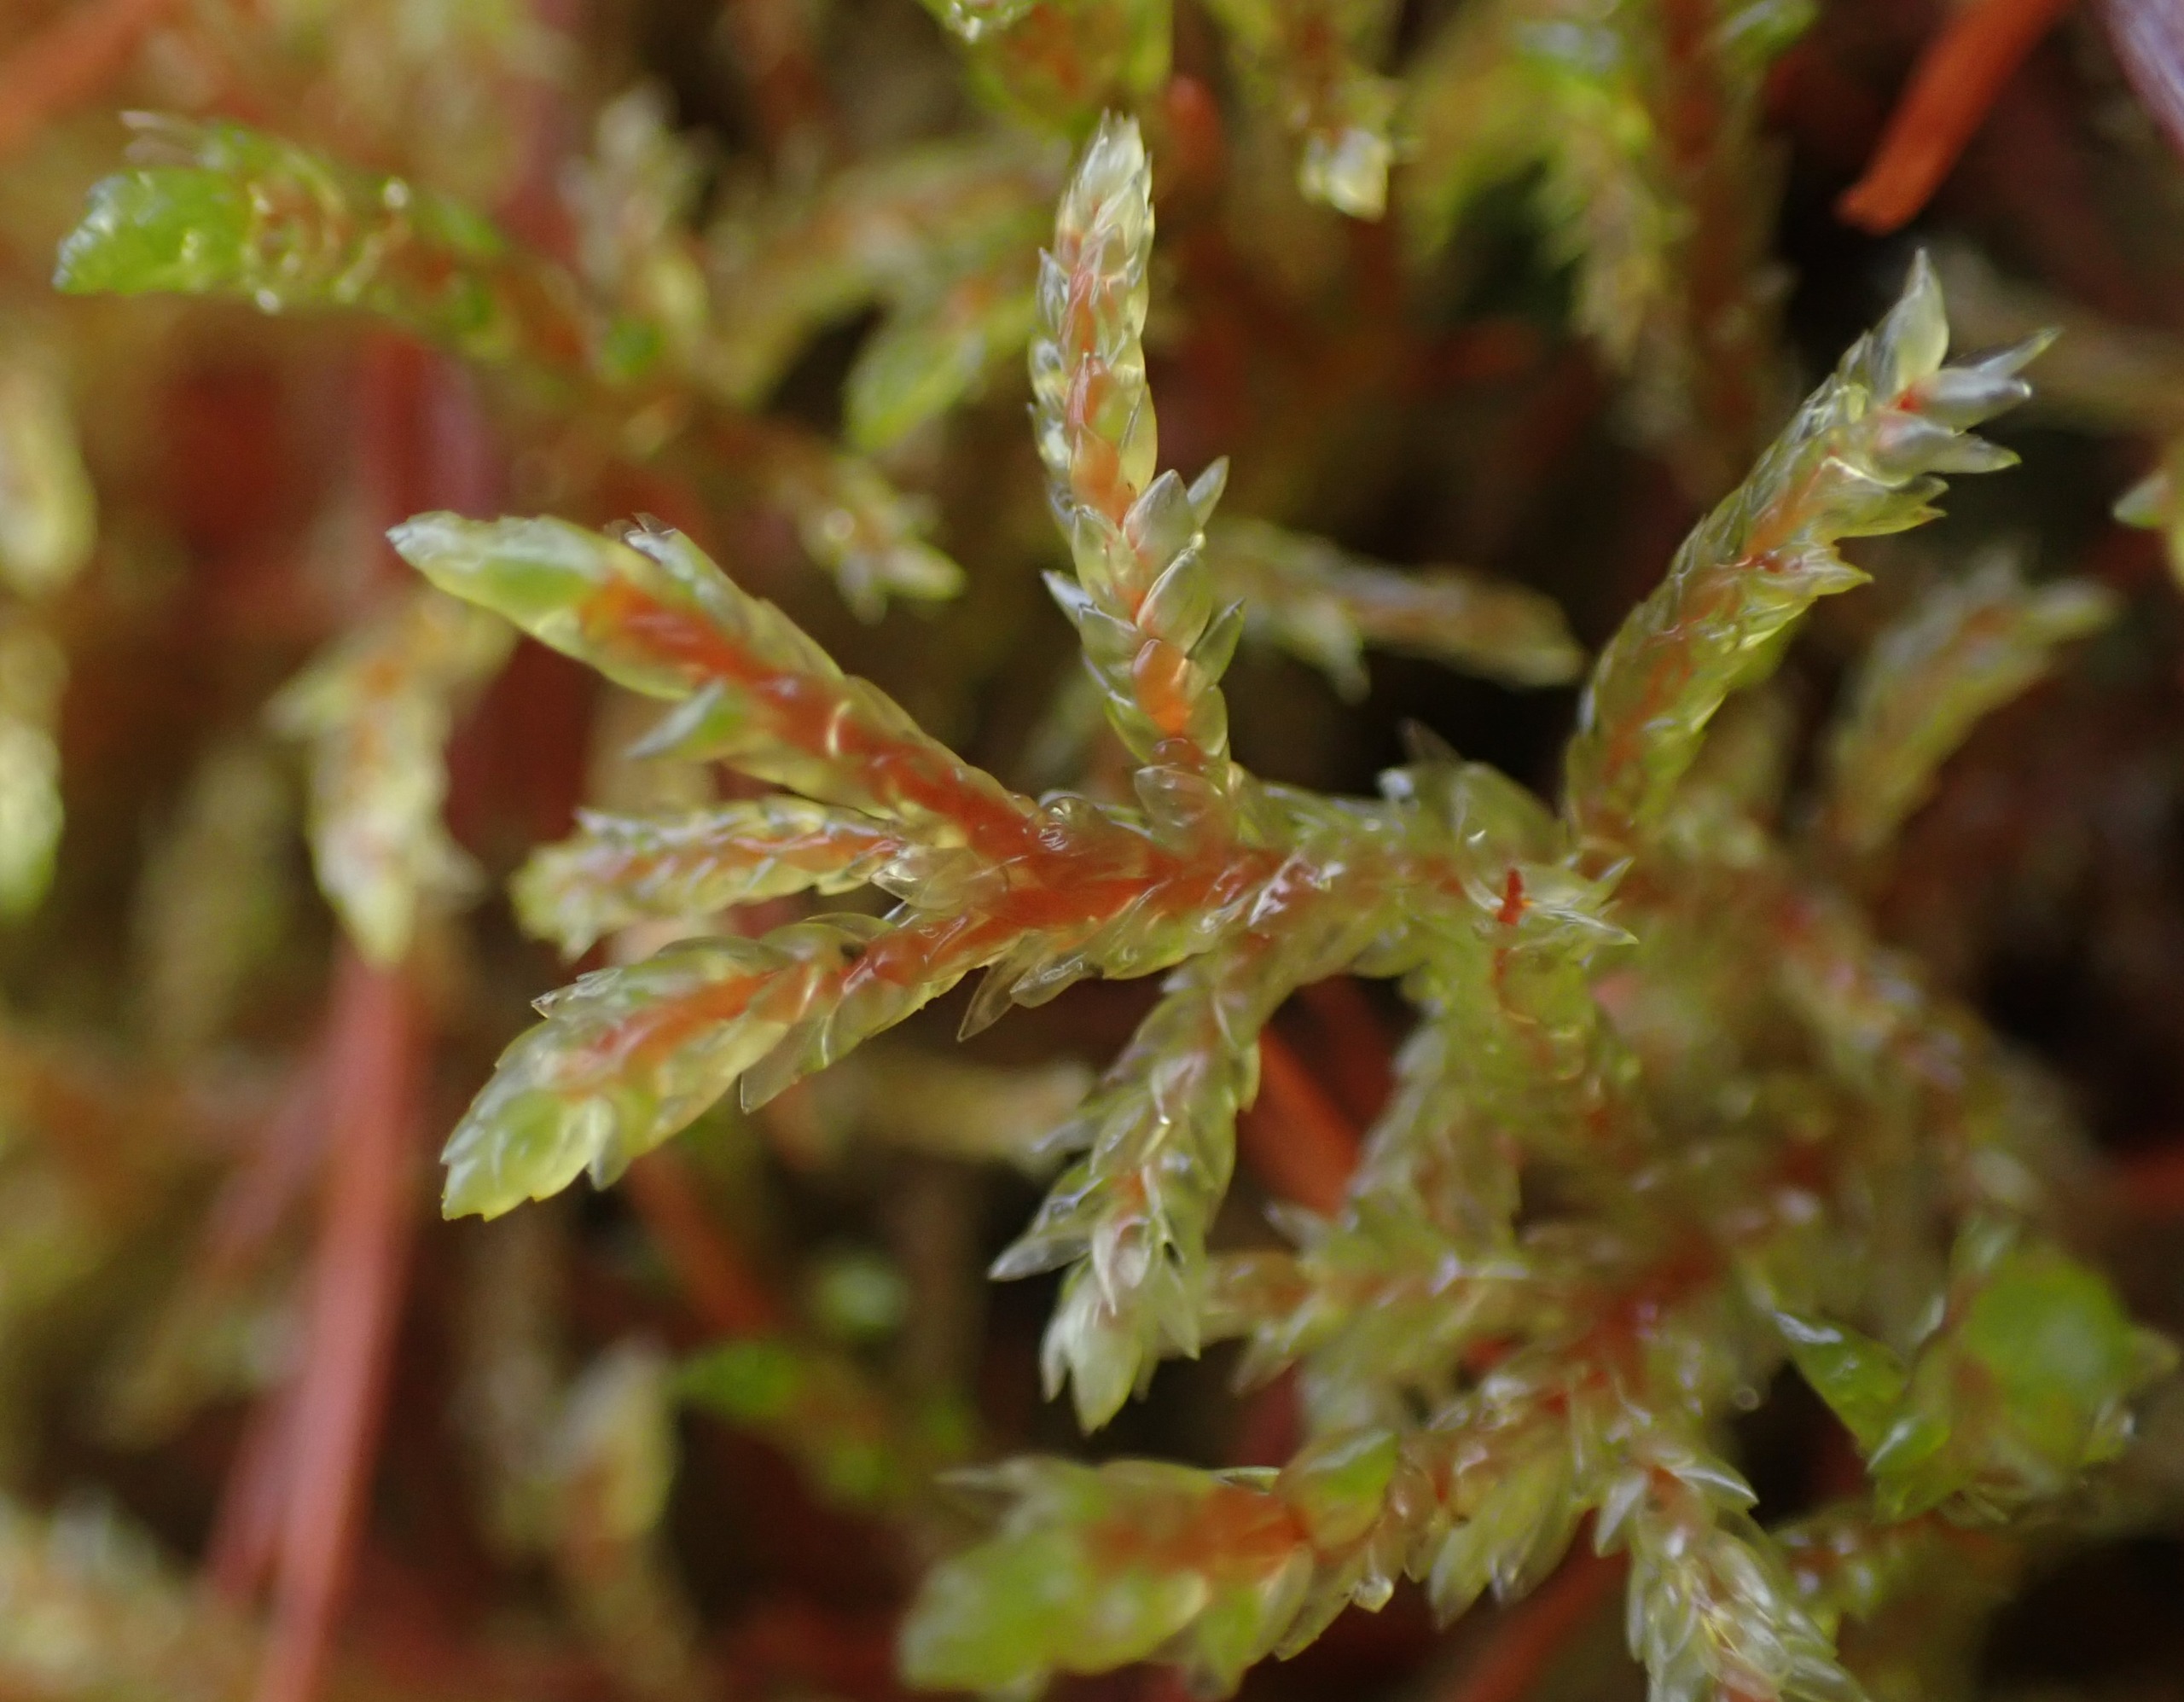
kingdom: Plantae
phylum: Bryophyta
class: Bryopsida
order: Hypnales
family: Hylocomiaceae
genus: Pleurozium
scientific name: Pleurozium schreberi
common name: Trind fyrremos
